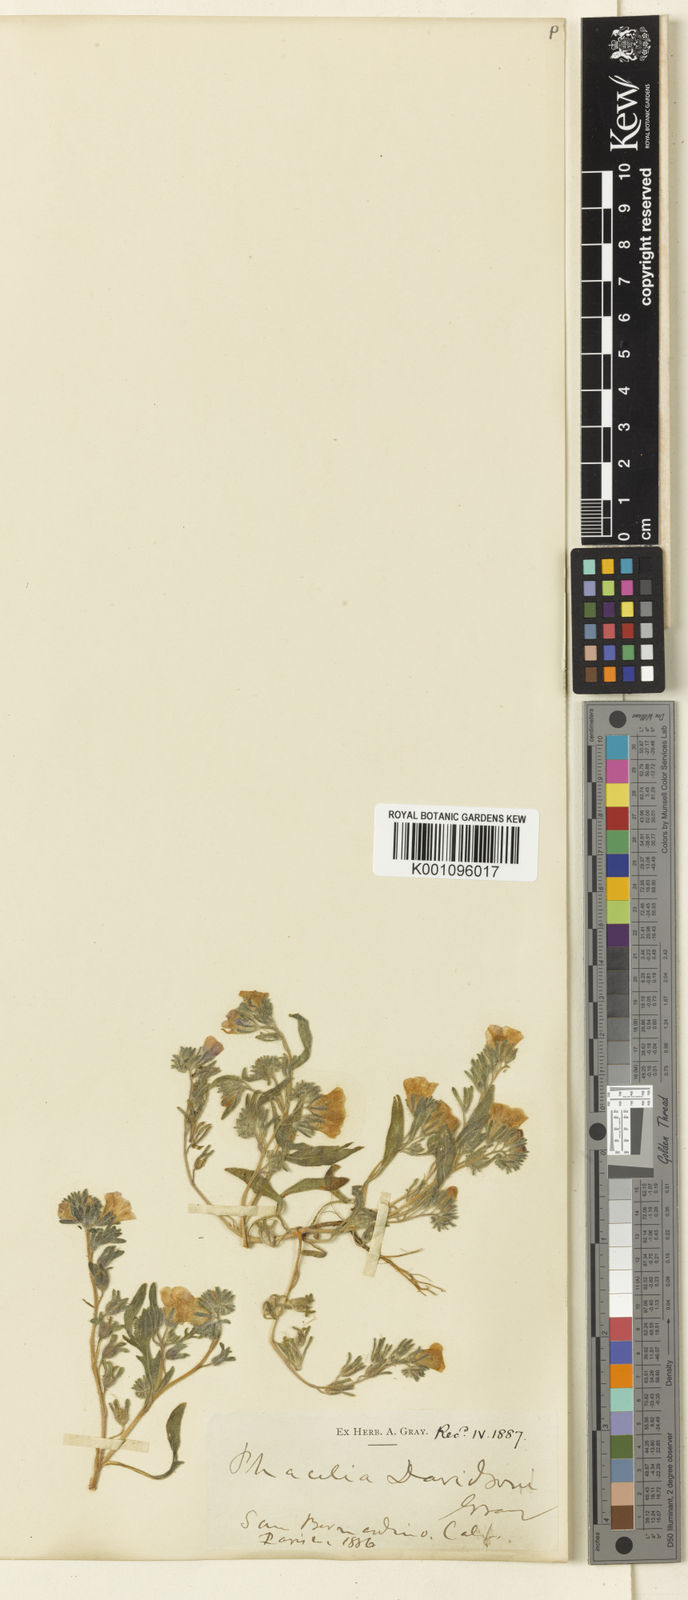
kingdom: Plantae
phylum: Tracheophyta
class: Magnoliopsida
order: Boraginales
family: Hydrophyllaceae
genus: Phacelia
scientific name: Phacelia
